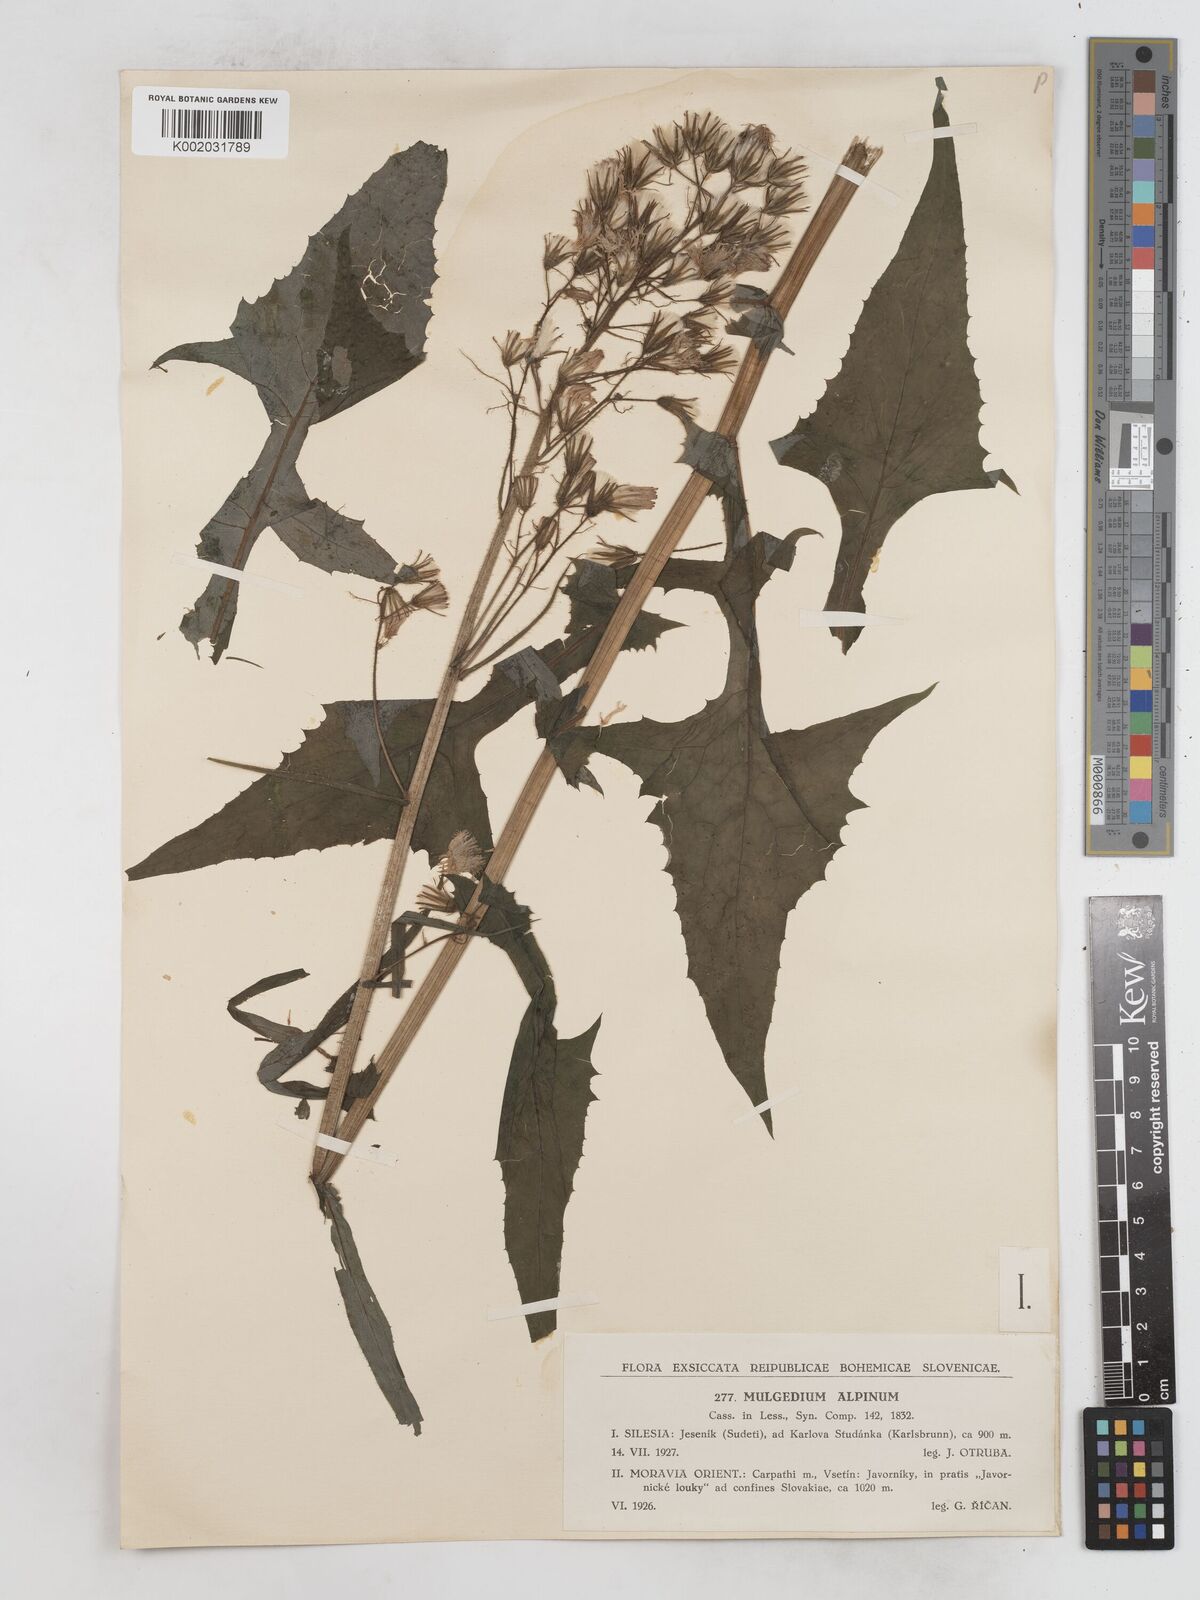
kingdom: Plantae
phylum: Tracheophyta
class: Magnoliopsida
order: Asterales
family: Asteraceae
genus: Cicerbita
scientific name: Cicerbita alpina
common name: Alpine blue-sow-thistle
